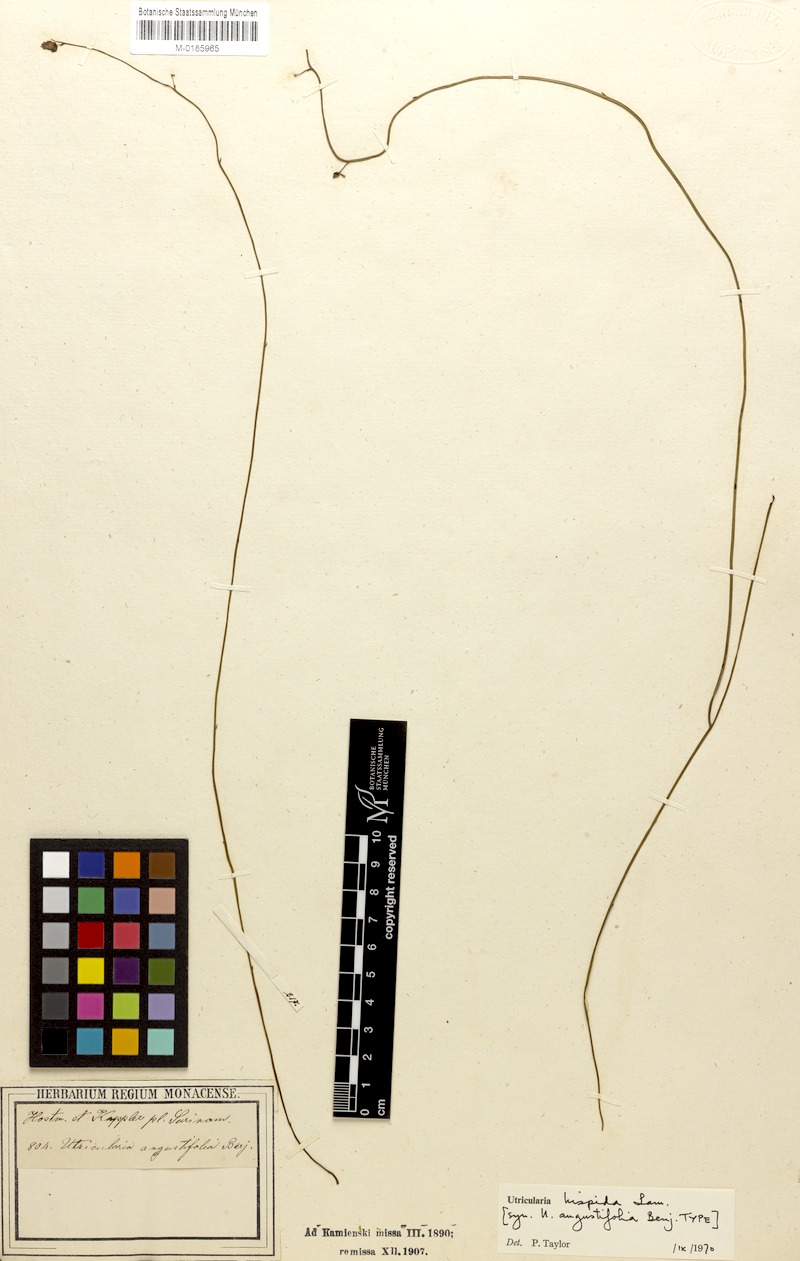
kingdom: Plantae
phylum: Tracheophyta
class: Magnoliopsida
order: Lamiales
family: Lentibulariaceae
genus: Utricularia
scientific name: Utricularia hispida
